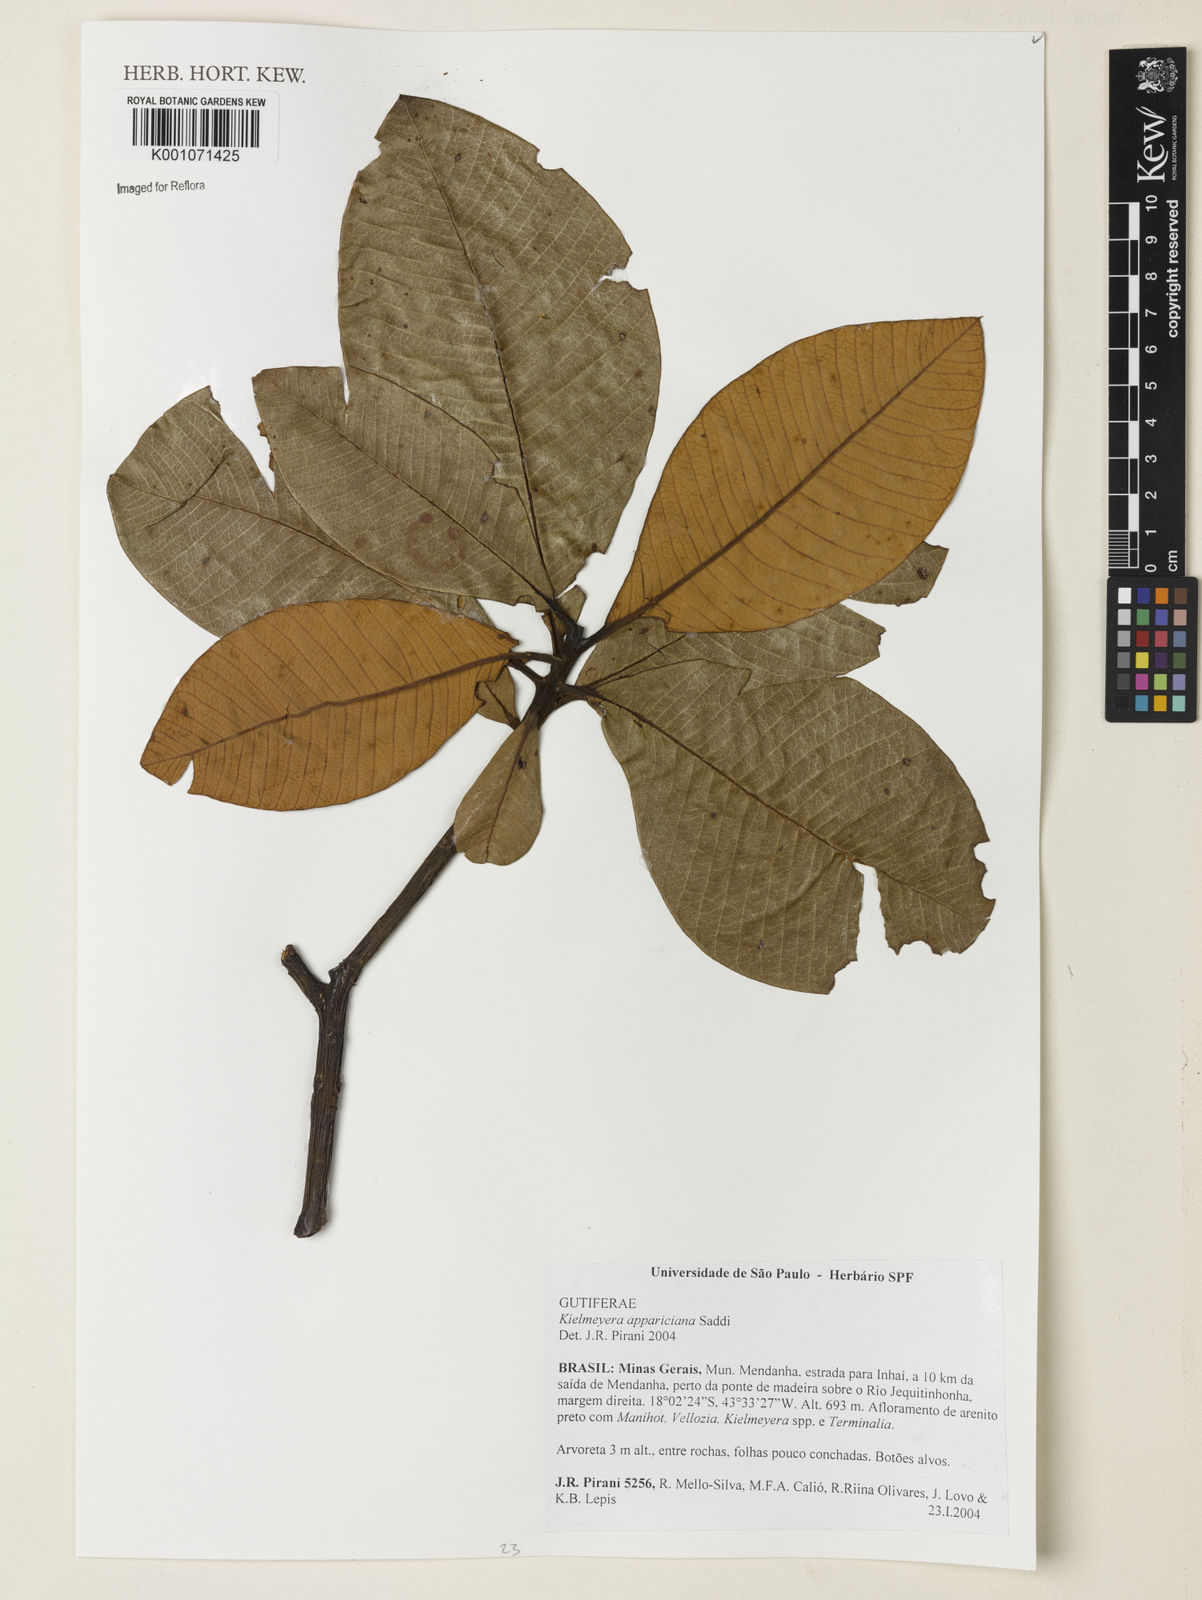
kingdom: Plantae
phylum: Tracheophyta
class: Magnoliopsida
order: Malpighiales
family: Calophyllaceae
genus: Kielmeyera
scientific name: Kielmeyera appariciana
